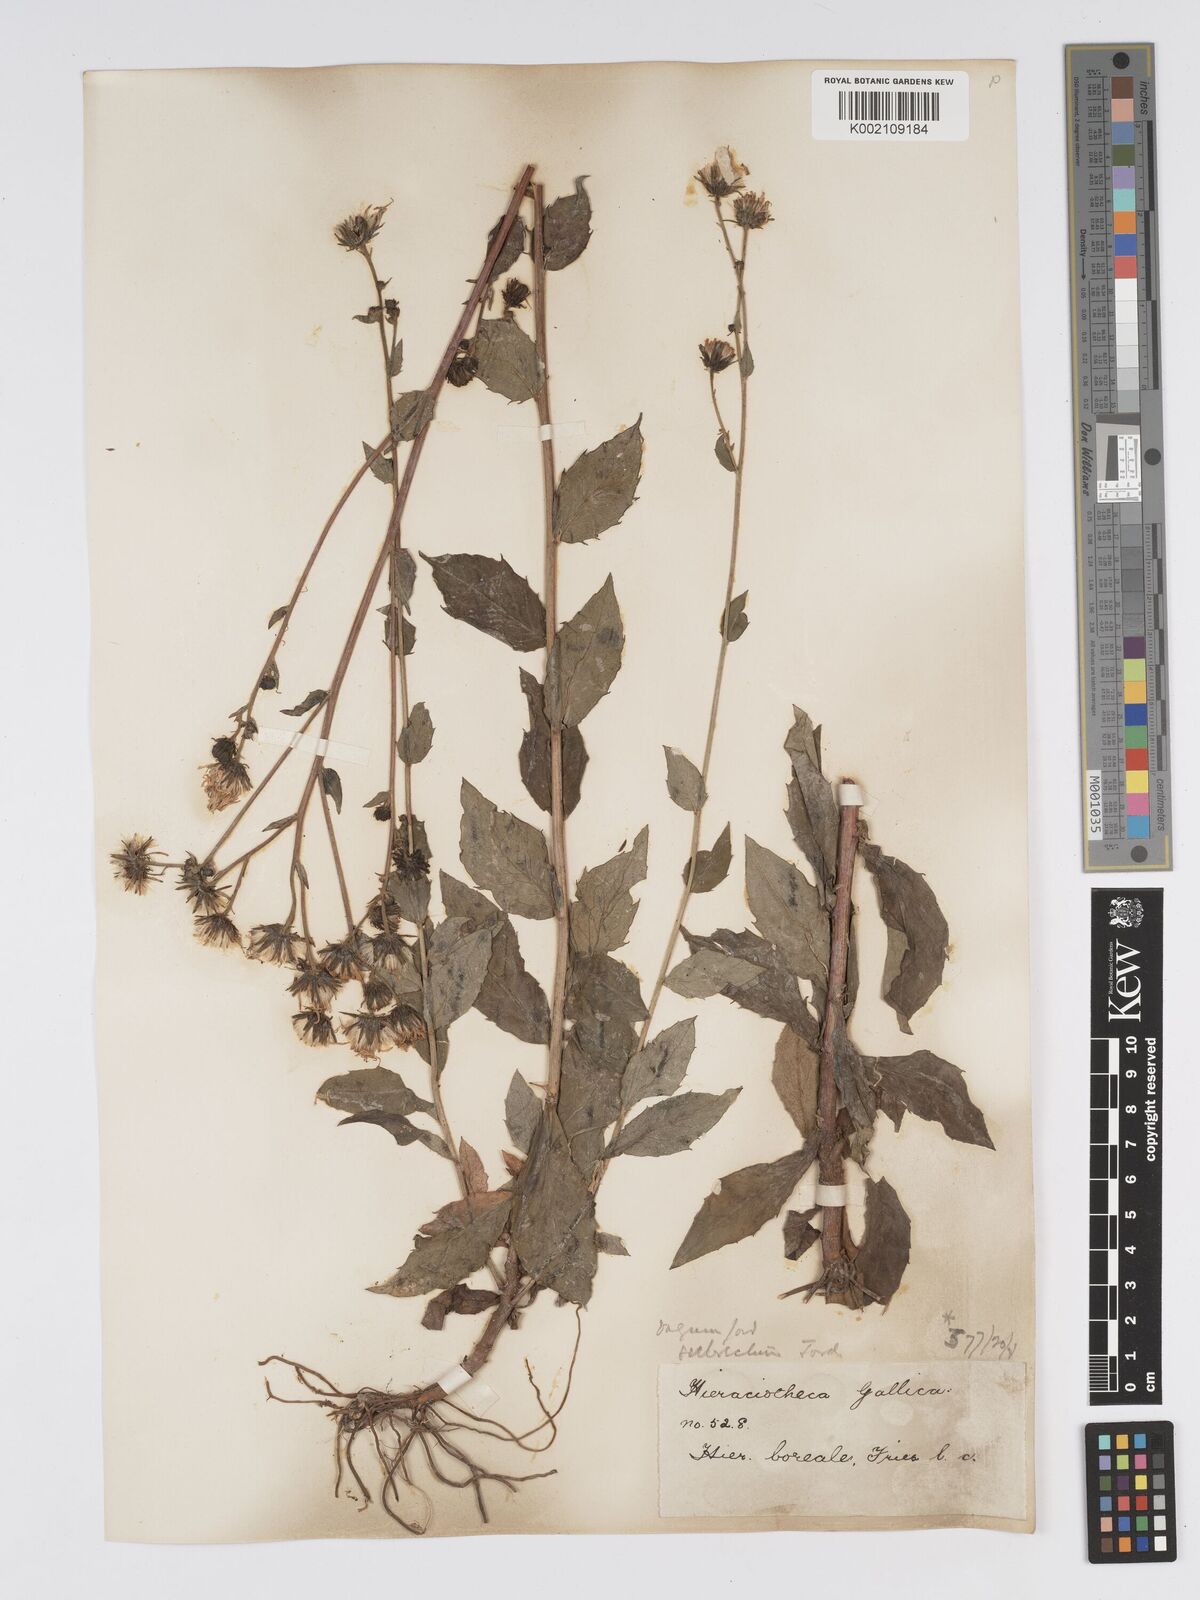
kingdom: Plantae
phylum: Tracheophyta
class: Magnoliopsida
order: Asterales
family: Asteraceae
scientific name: Asteraceae
